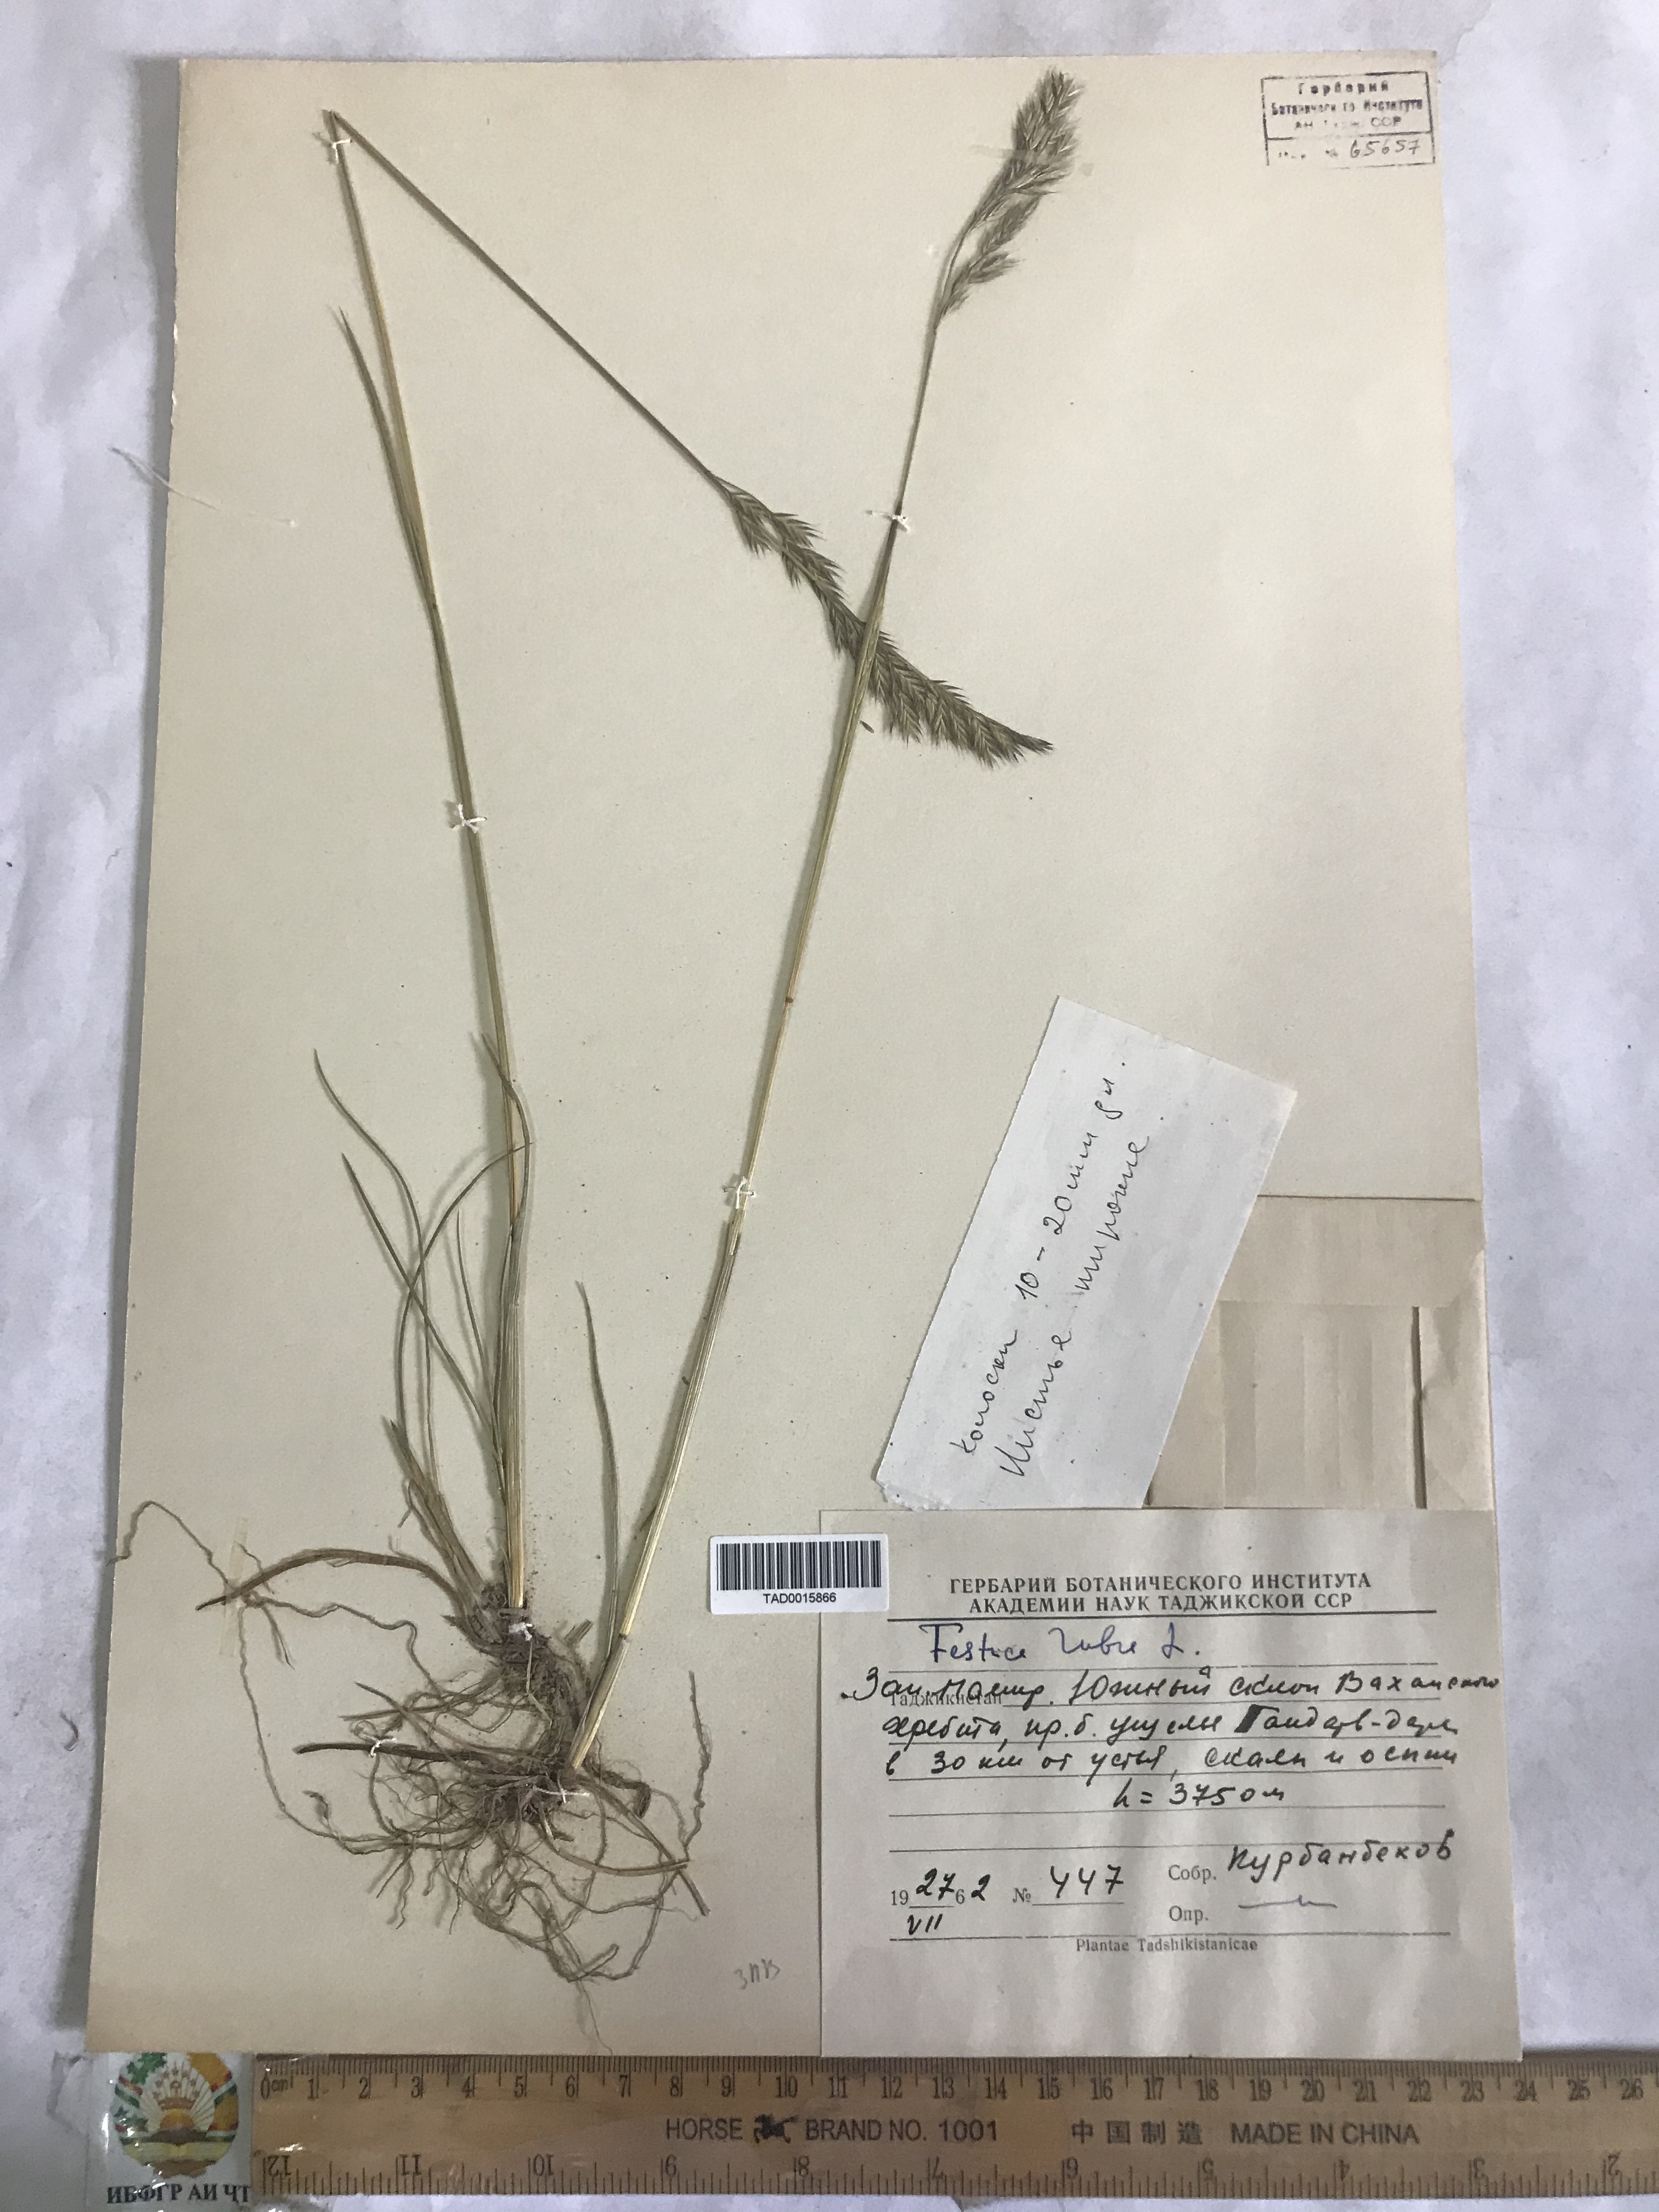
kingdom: Plantae
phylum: Tracheophyta
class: Liliopsida
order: Poales
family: Poaceae
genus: Festuca
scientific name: Festuca rubra
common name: Red fescue
